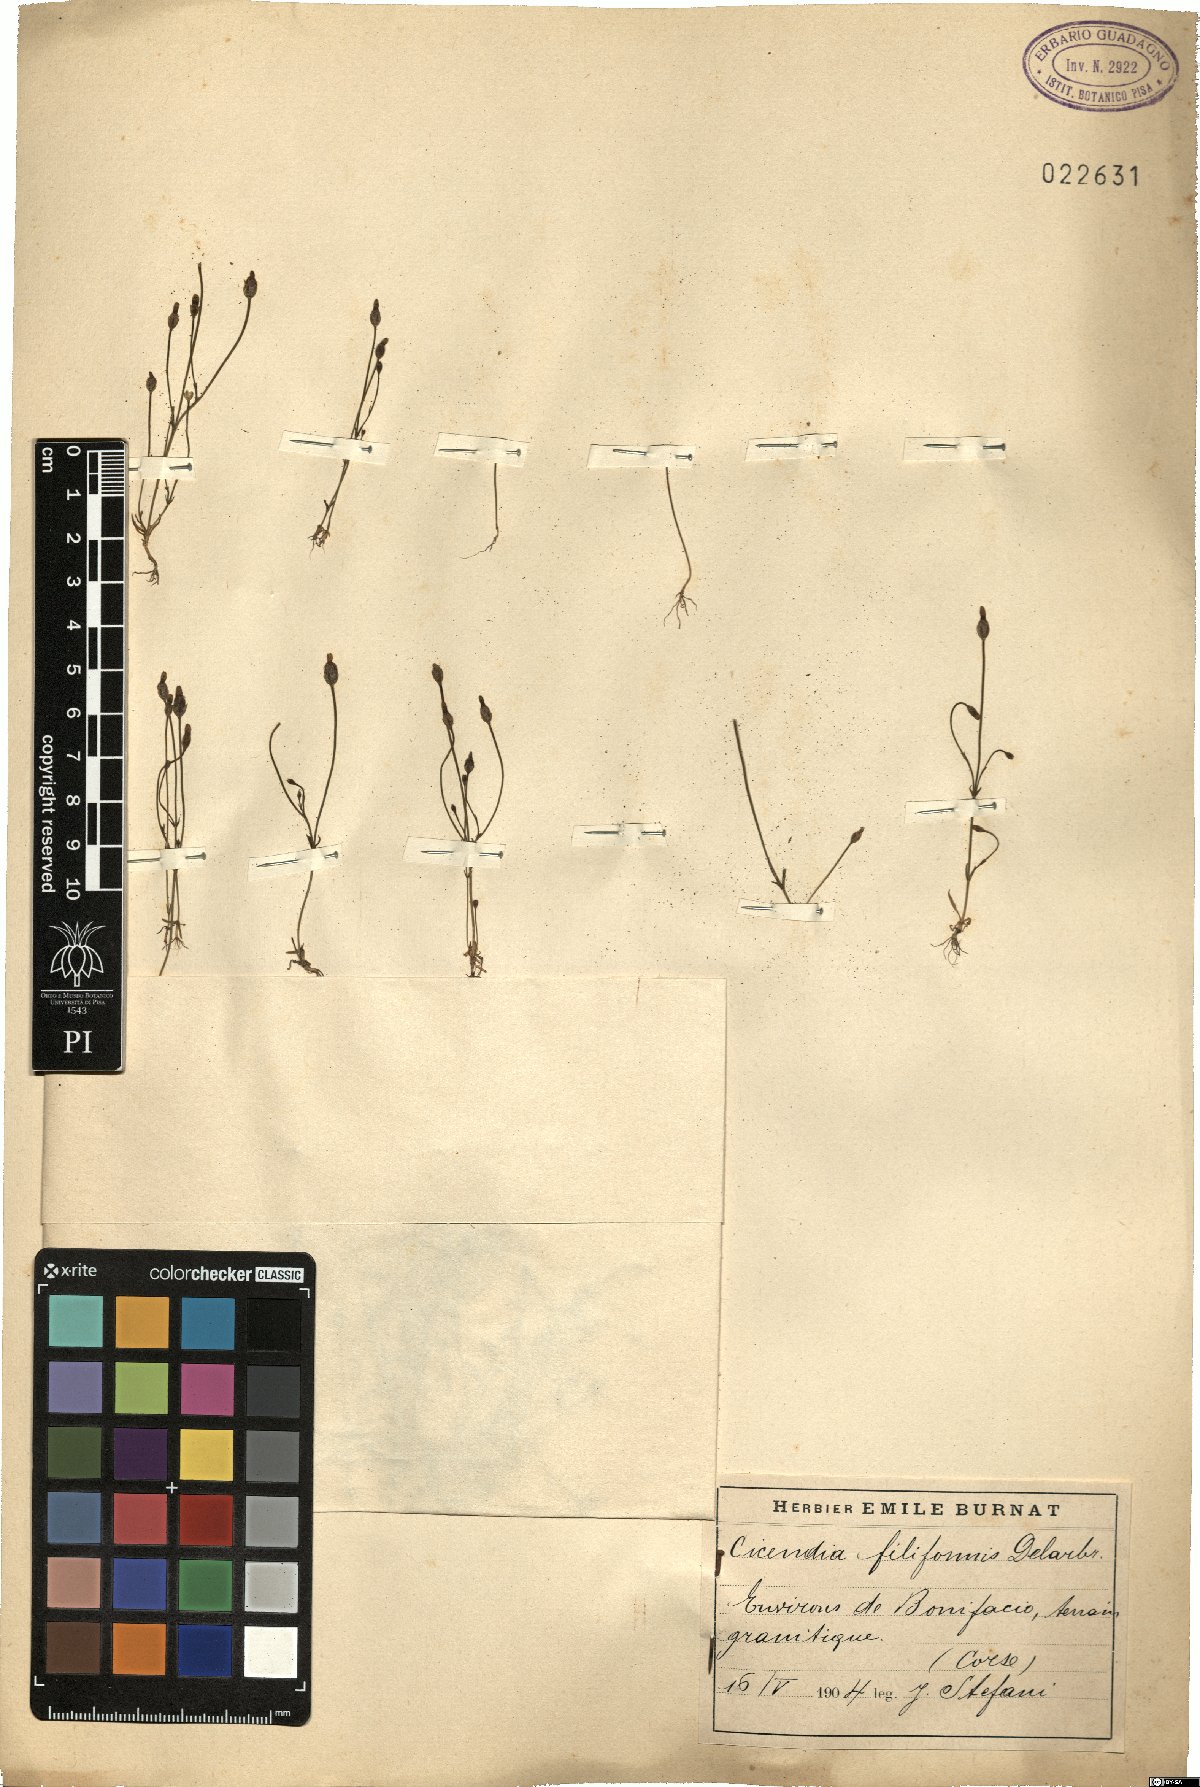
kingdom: Plantae
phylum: Tracheophyta
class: Magnoliopsida
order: Gentianales
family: Gentianaceae
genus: Cicendia
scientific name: Cicendia filiformis
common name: Yellow centaury
